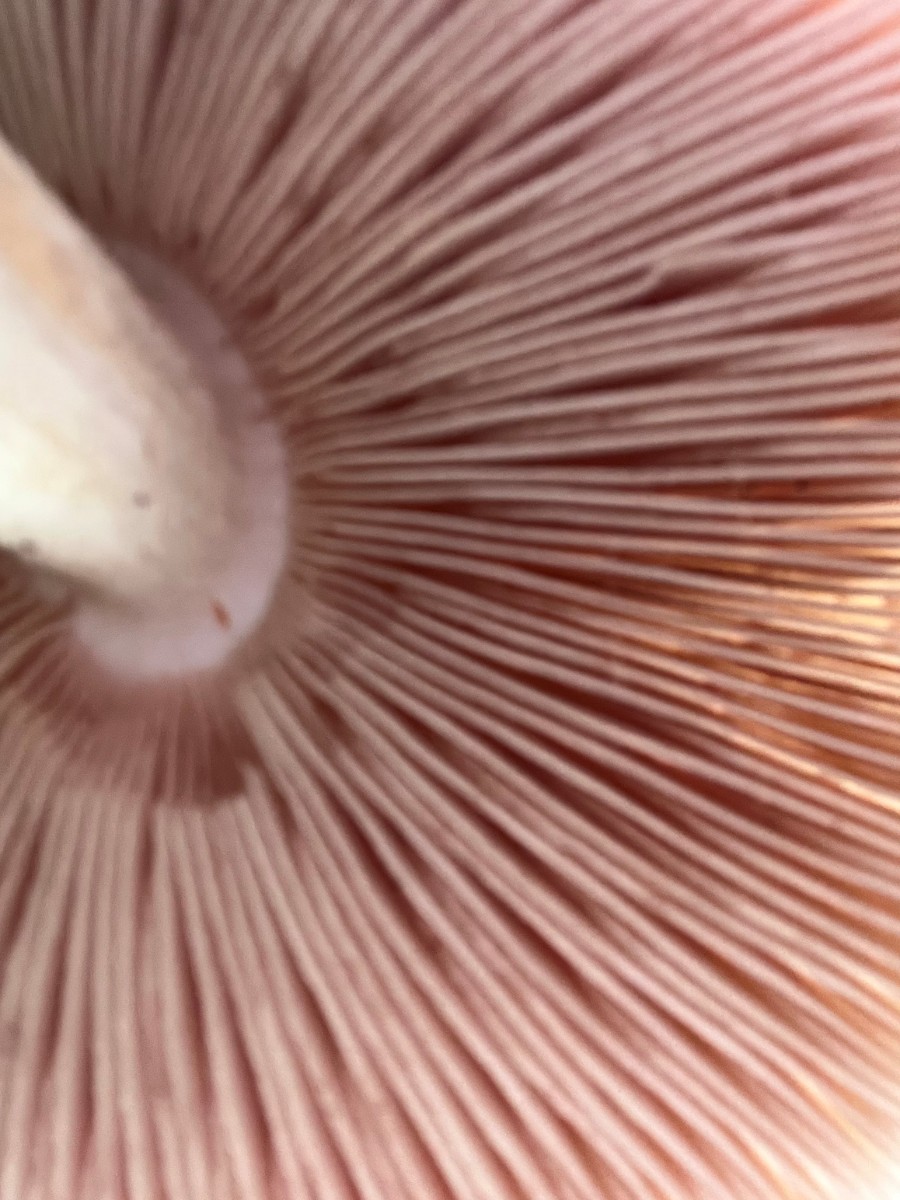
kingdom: Fungi
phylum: Basidiomycota
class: Agaricomycetes
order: Agaricales
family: Pluteaceae
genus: Pluteus
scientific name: Pluteus cervinus
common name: sodfarvet skærmhat
